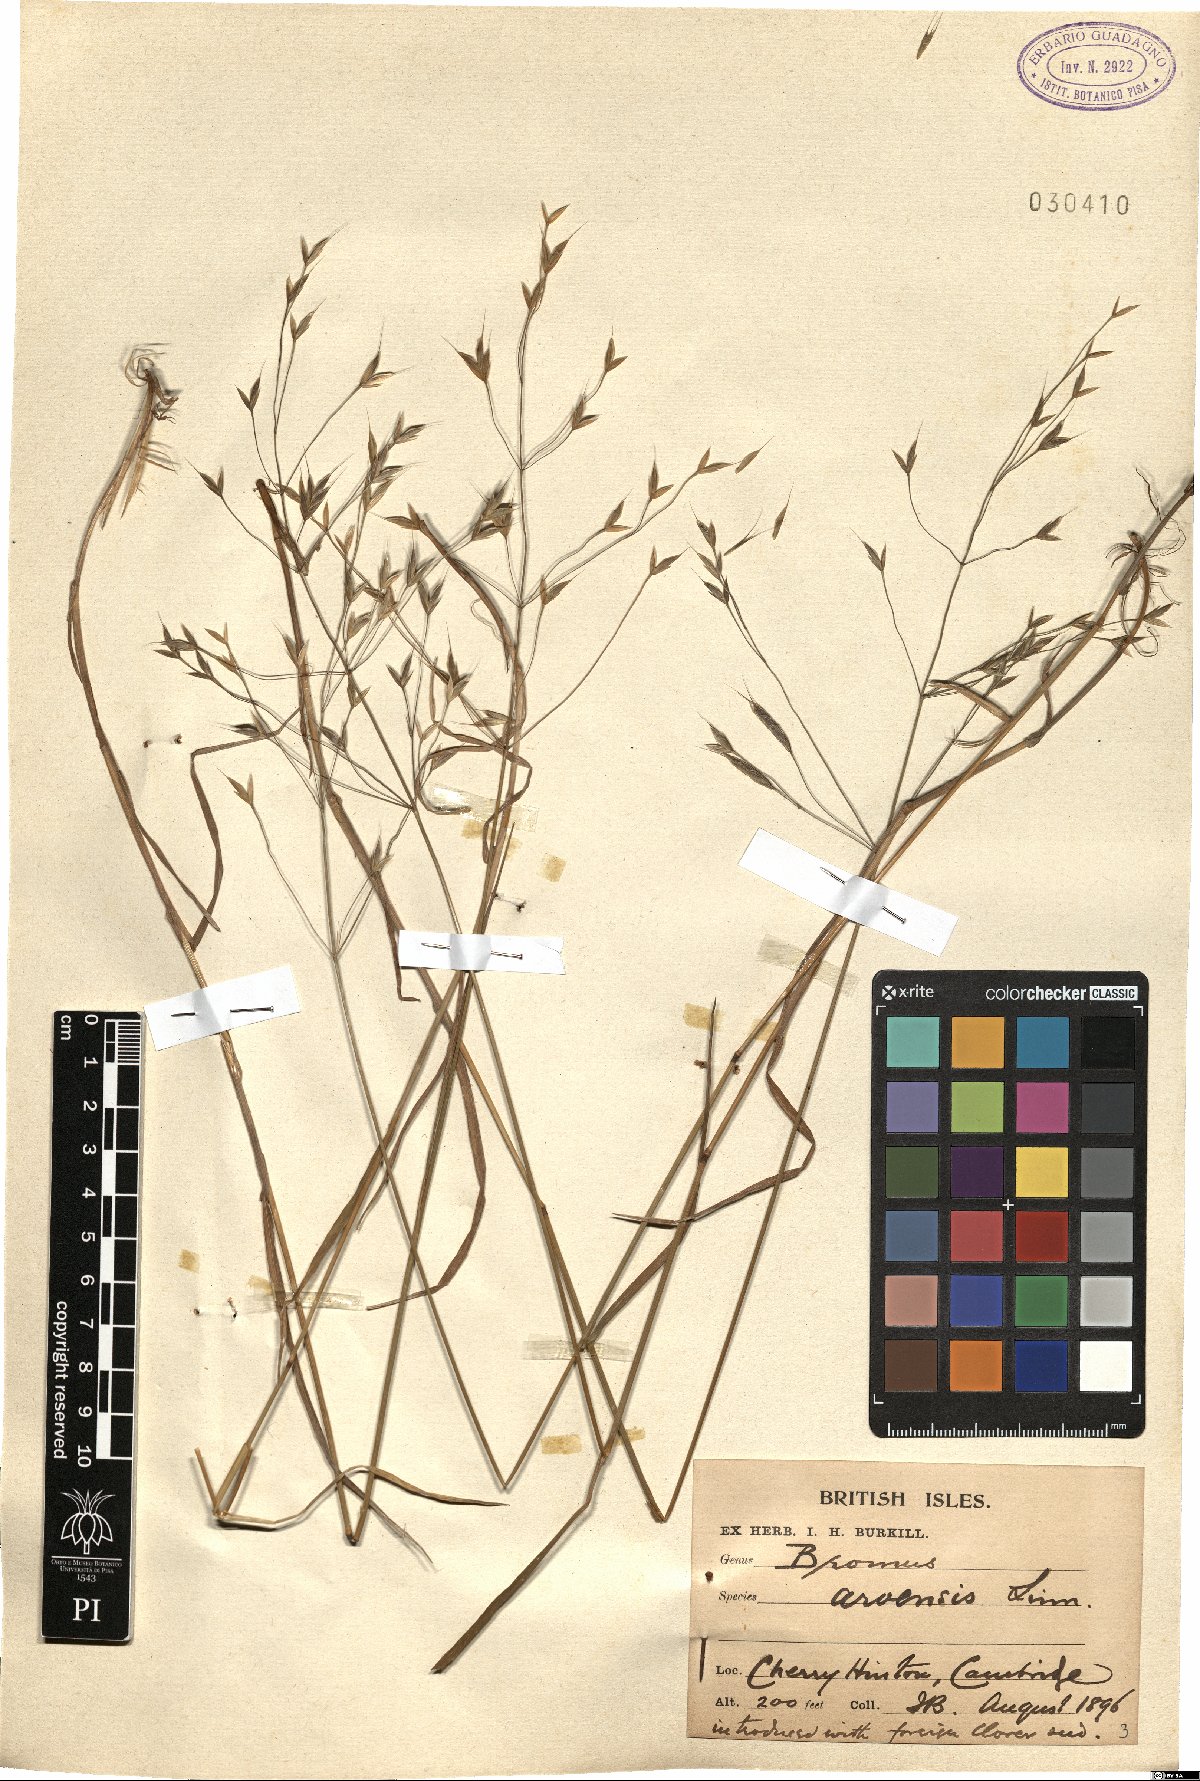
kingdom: Plantae
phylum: Tracheophyta
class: Liliopsida
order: Poales
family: Poaceae
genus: Bromus
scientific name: Bromus arvensis
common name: Field brome
